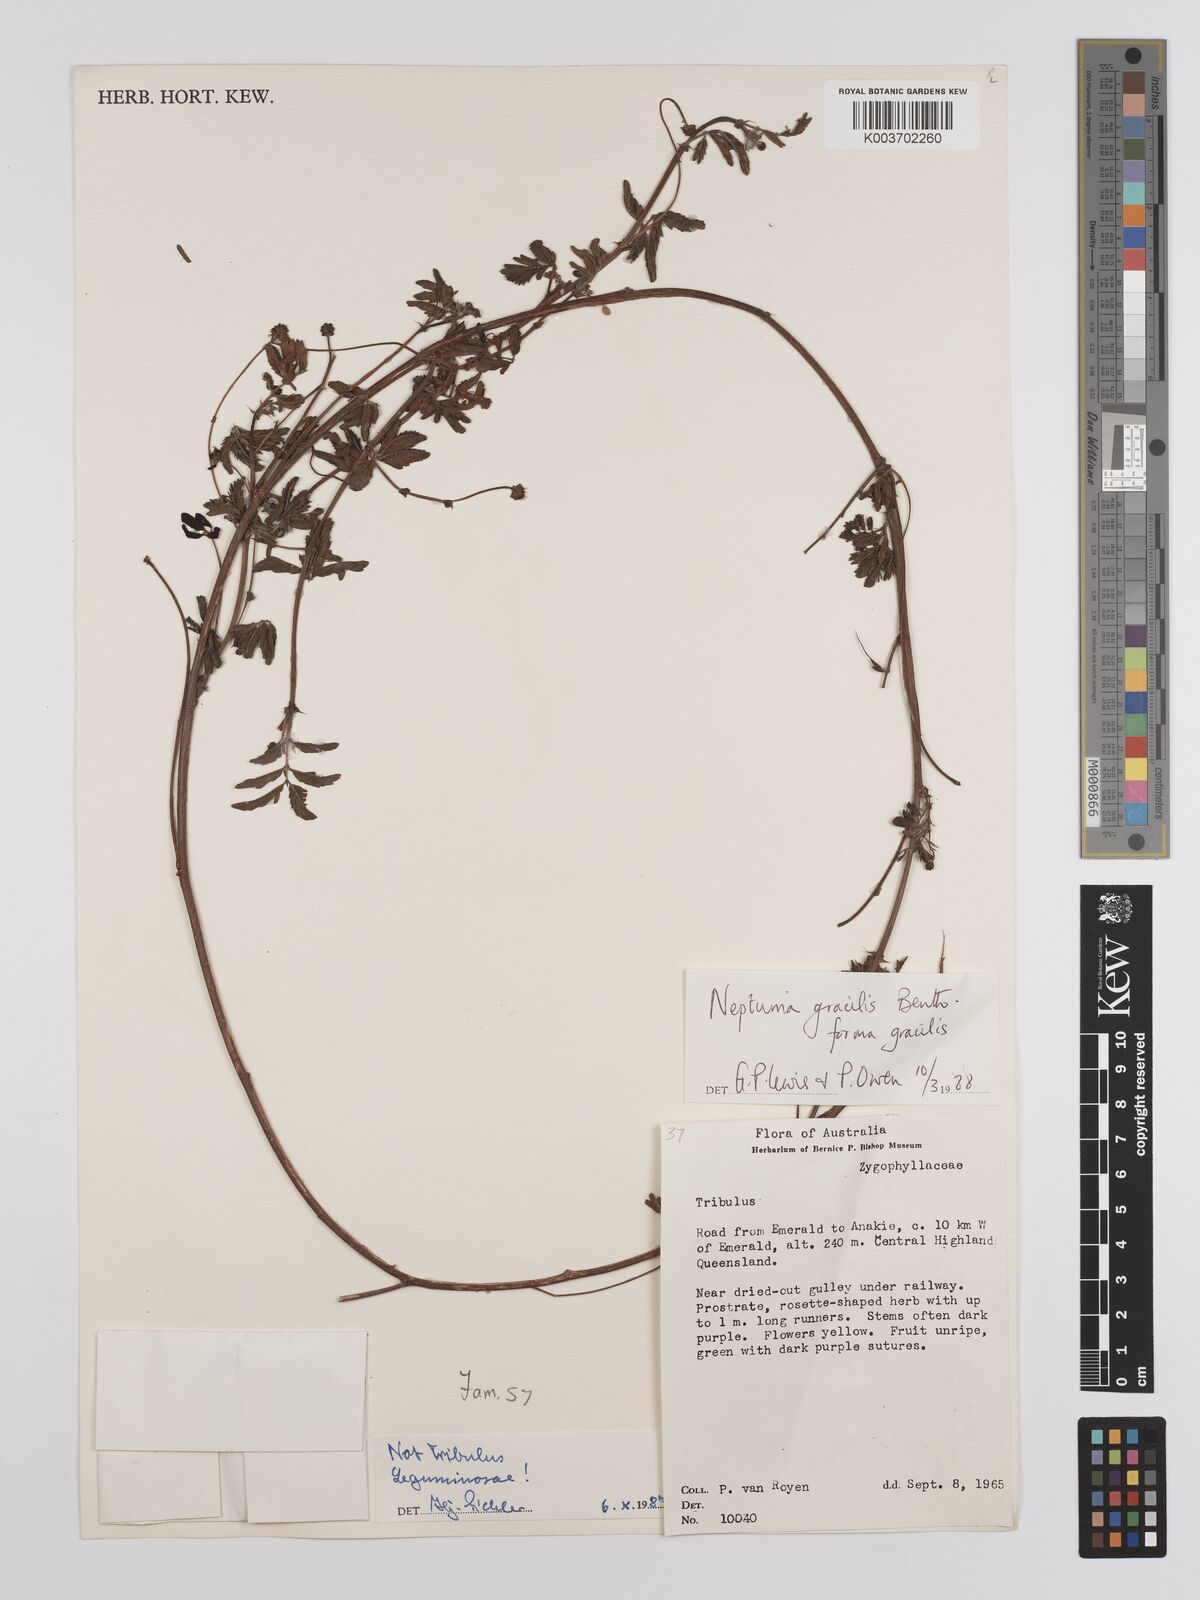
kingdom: Plantae
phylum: Tracheophyta
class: Magnoliopsida
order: Fabales
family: Fabaceae
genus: Neptunia
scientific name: Neptunia gracilis
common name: Sensitive-plant
